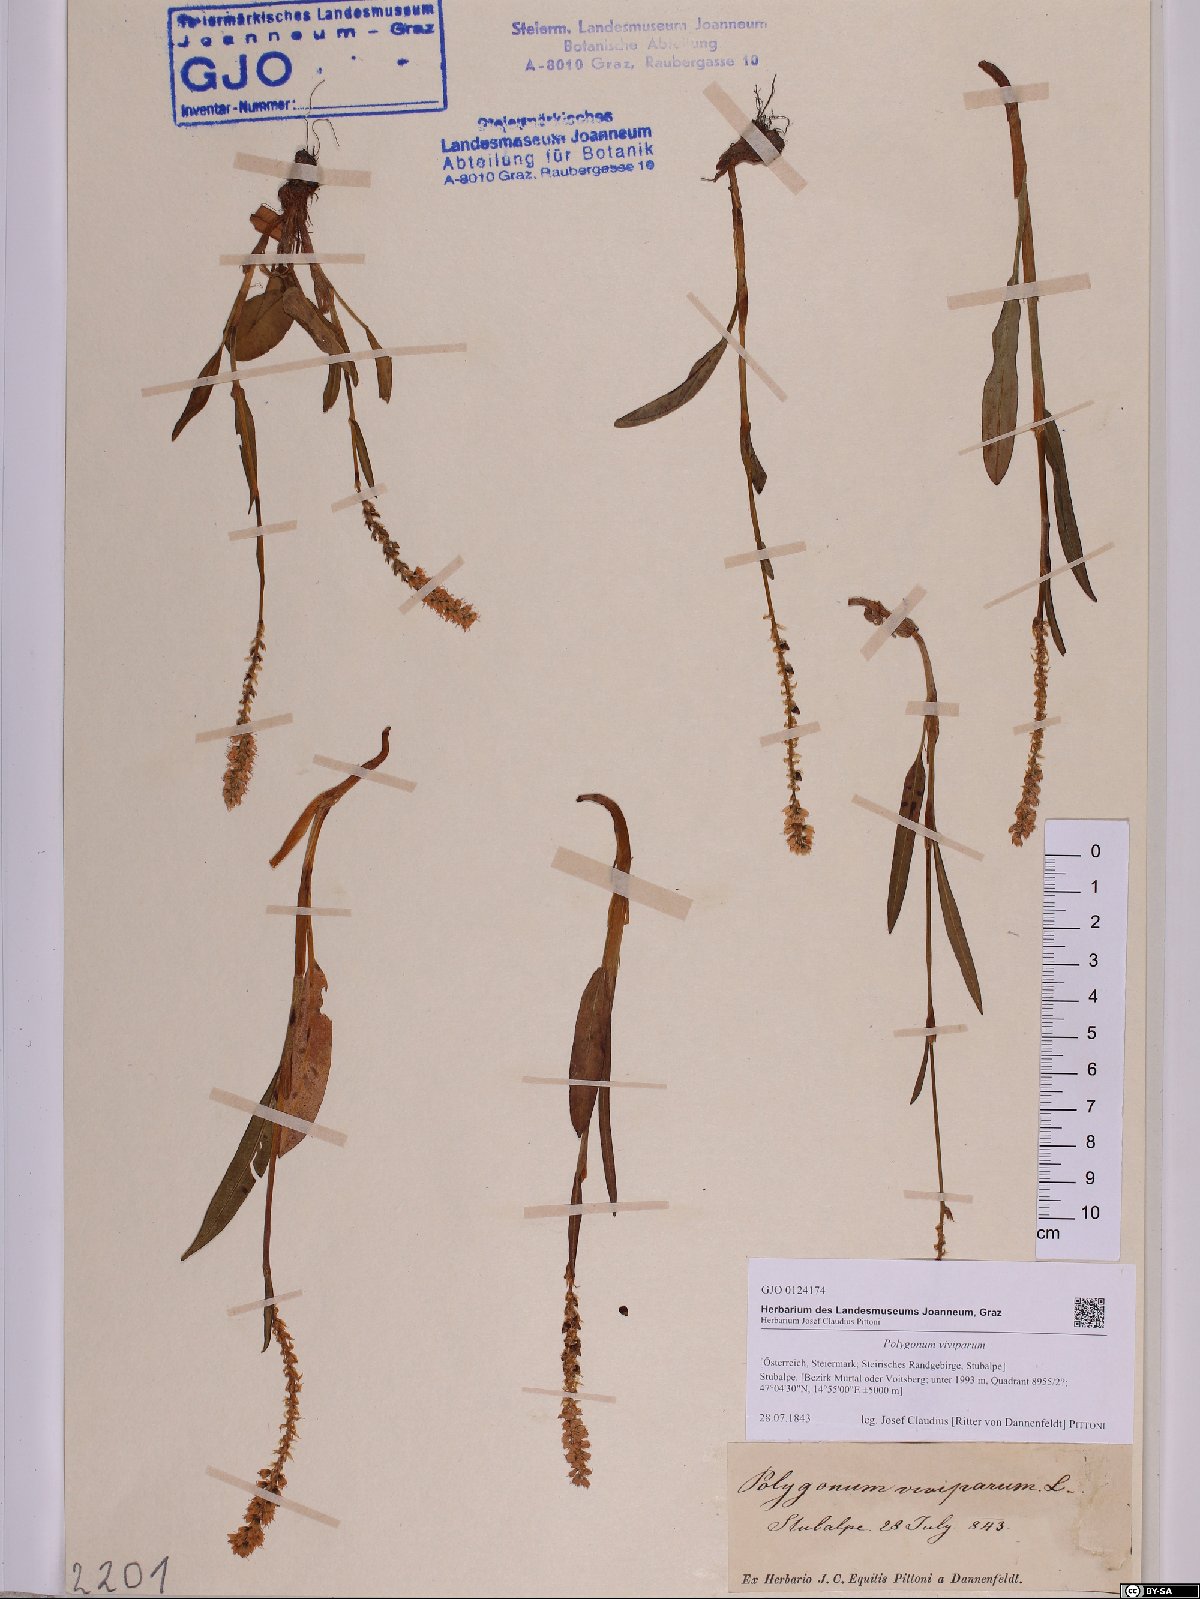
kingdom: Plantae
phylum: Tracheophyta
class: Magnoliopsida
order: Caryophyllales
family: Polygonaceae
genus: Bistorta
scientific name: Bistorta vivipara
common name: Alpine bistort
